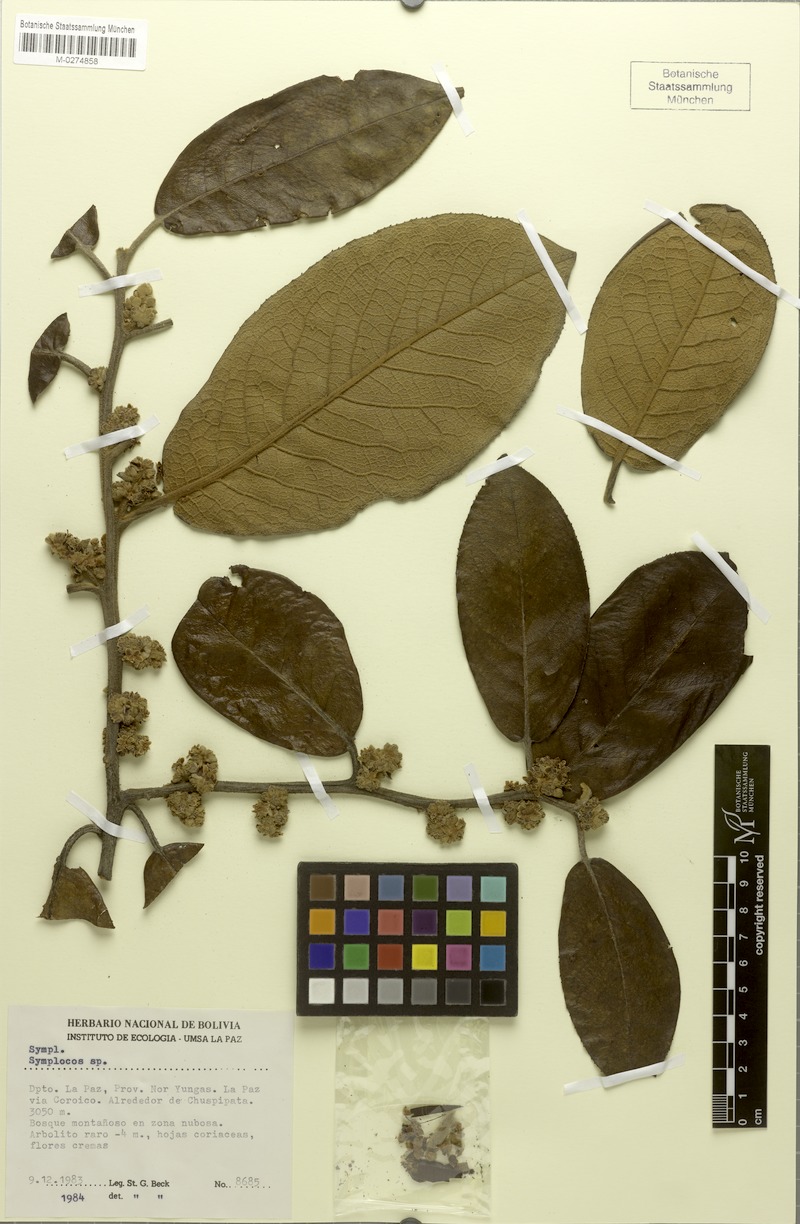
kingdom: Plantae
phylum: Tracheophyta
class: Magnoliopsida
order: Ericales
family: Symplocaceae
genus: Symplocos
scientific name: Symplocos robusta
